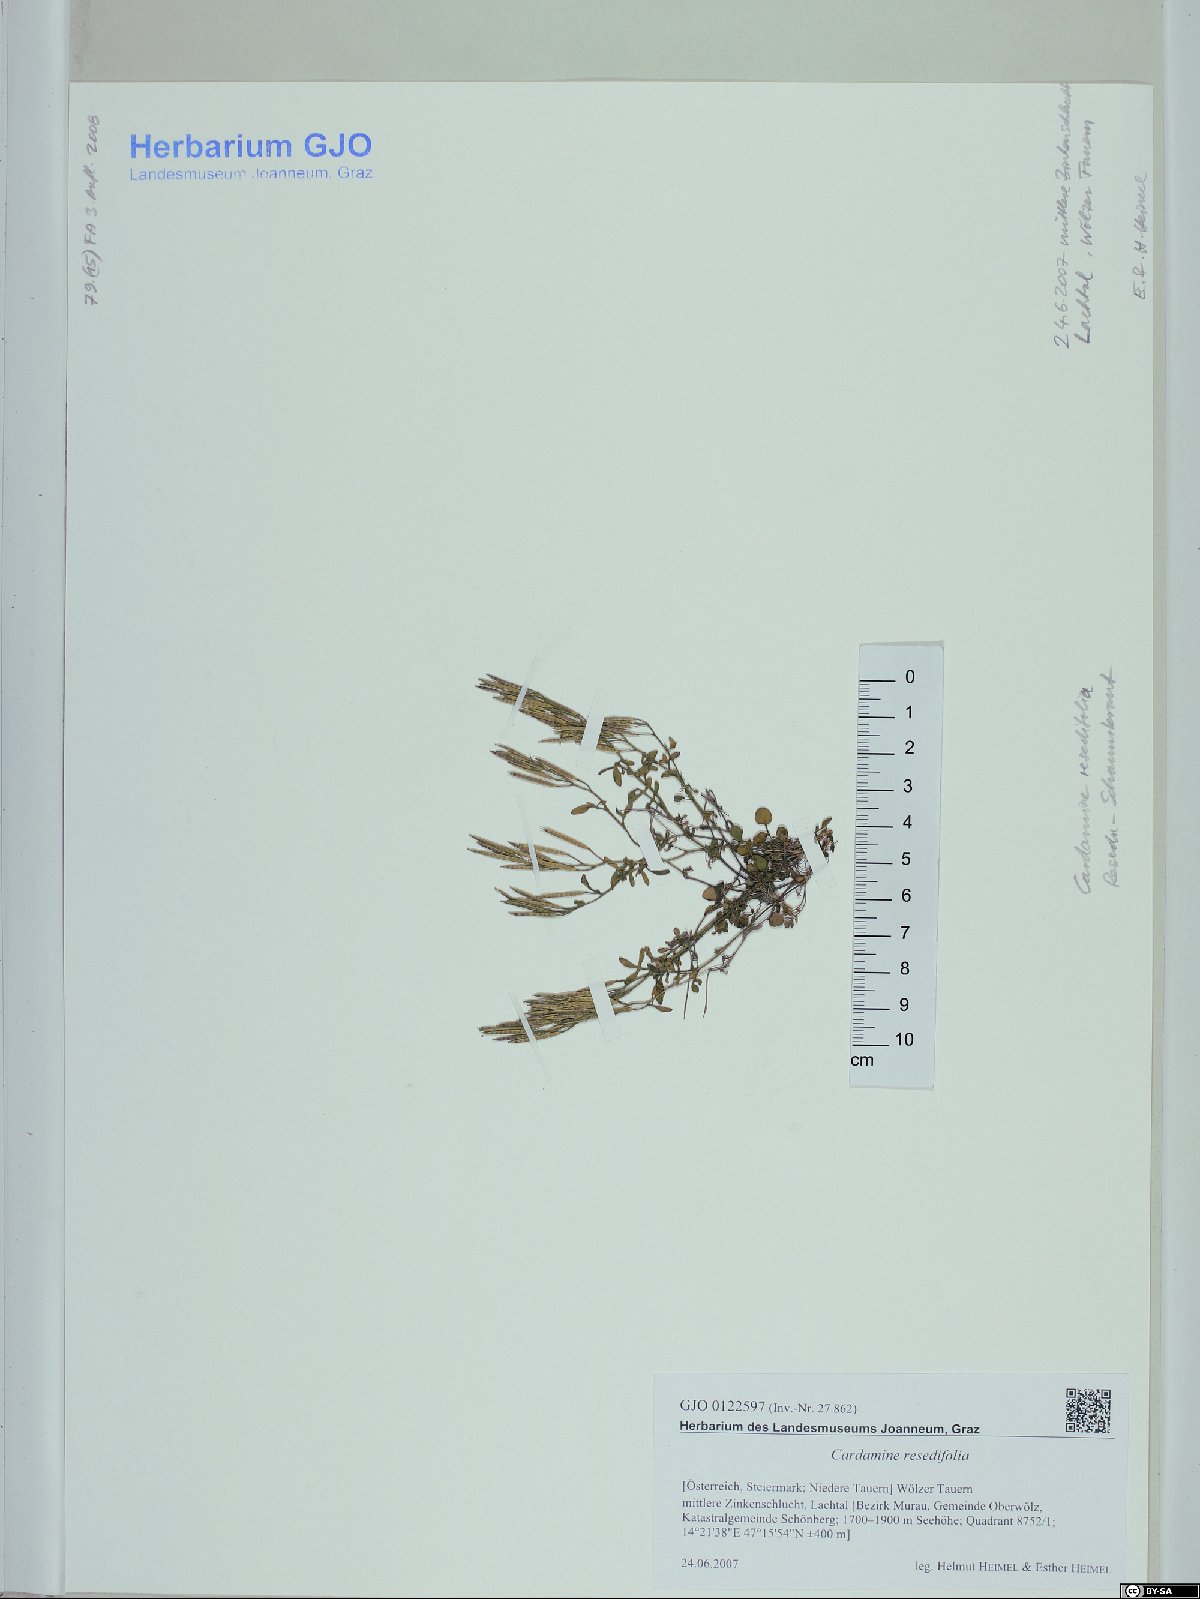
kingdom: Plantae
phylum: Tracheophyta
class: Magnoliopsida
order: Brassicales
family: Brassicaceae
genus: Cardamine
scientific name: Cardamine resedifolia
